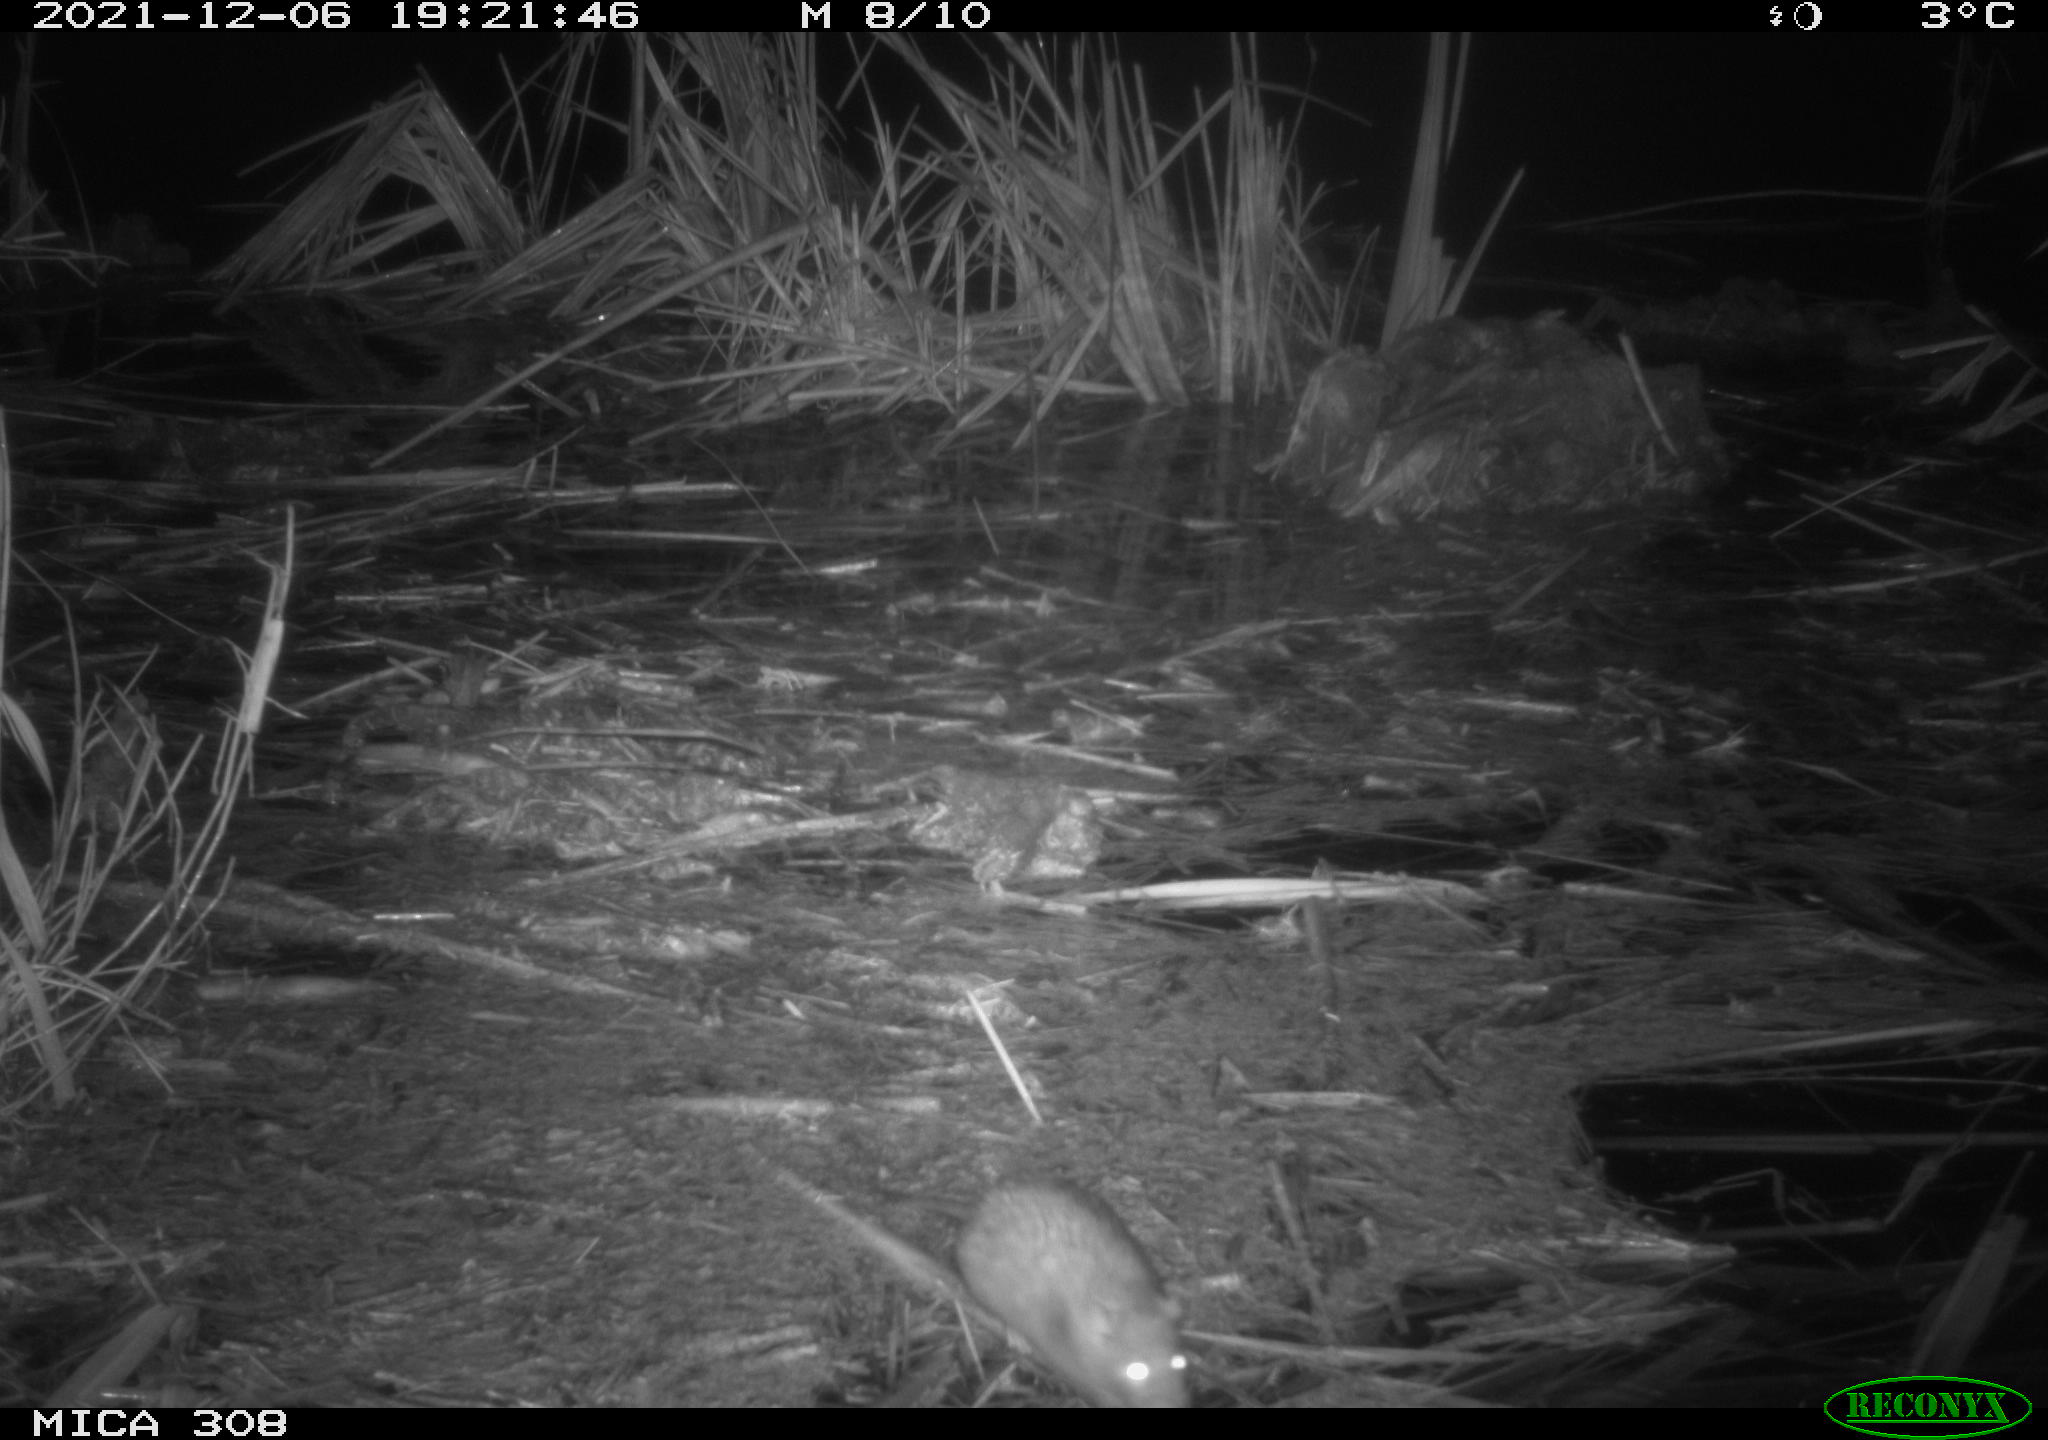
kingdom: Animalia
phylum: Chordata
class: Mammalia
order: Rodentia
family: Muridae
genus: Rattus
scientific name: Rattus norvegicus
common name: Brown rat
